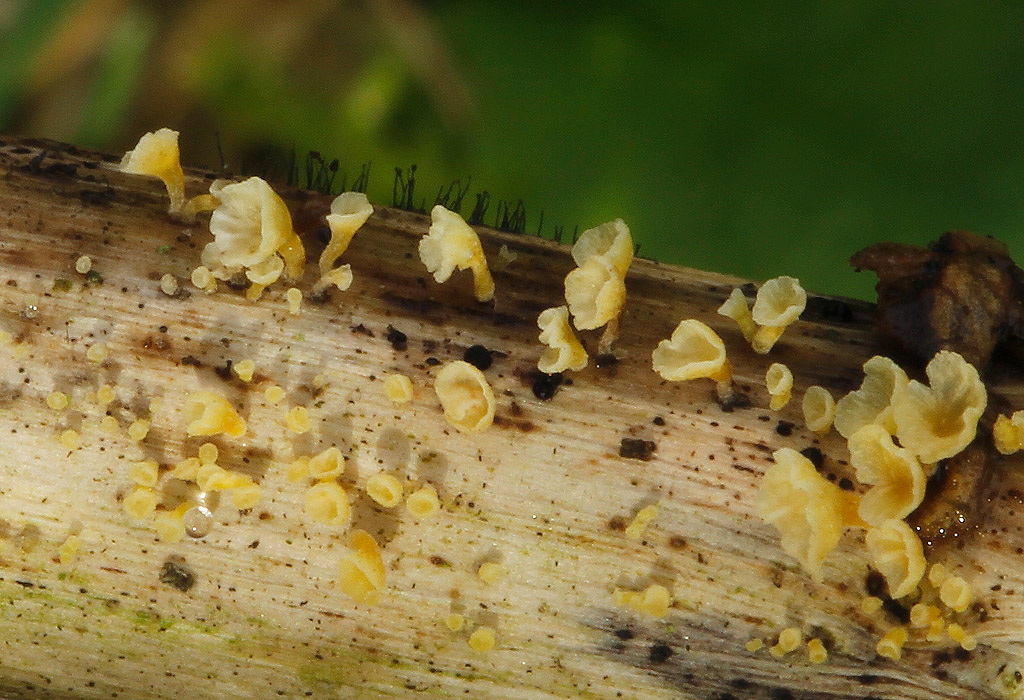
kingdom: Fungi
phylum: Basidiomycota
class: Agaricomycetes
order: Agaricales
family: Marasmiaceae
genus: Calyptella
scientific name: Calyptella campanula
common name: gul nældehue
